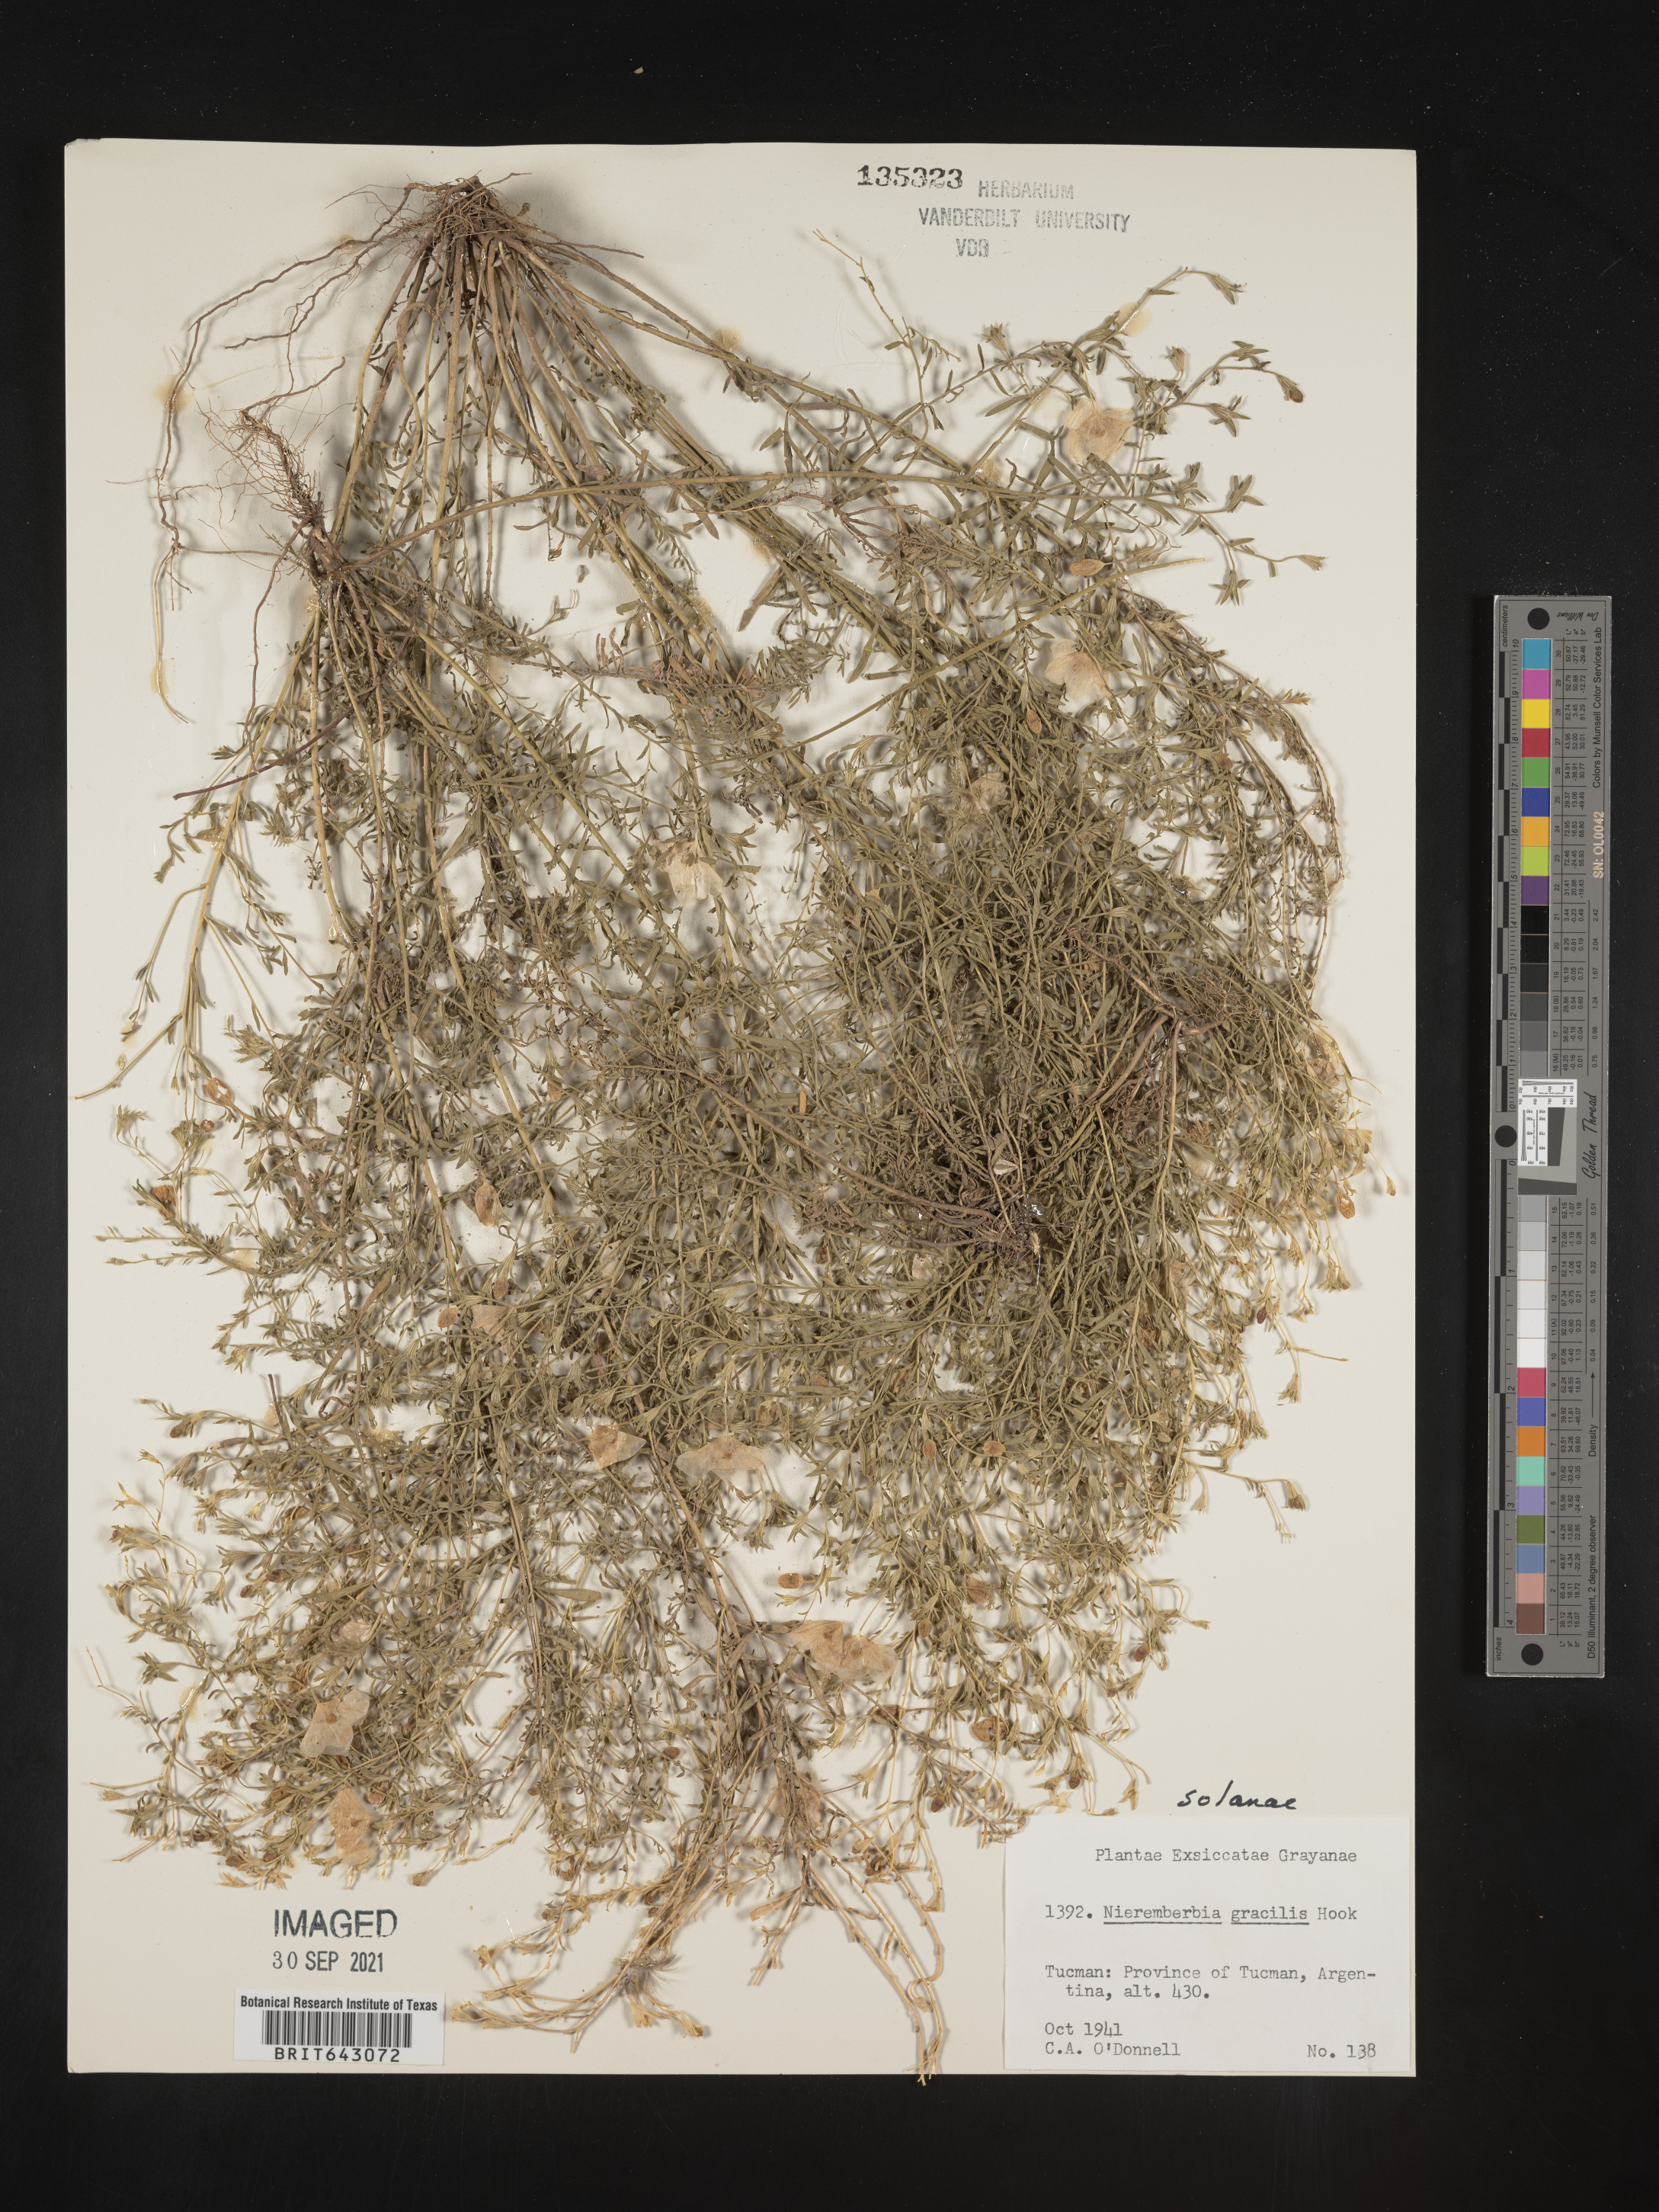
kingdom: Plantae
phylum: Tracheophyta
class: Magnoliopsida
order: Solanales
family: Solanaceae
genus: Nierembergia
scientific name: Nierembergia
